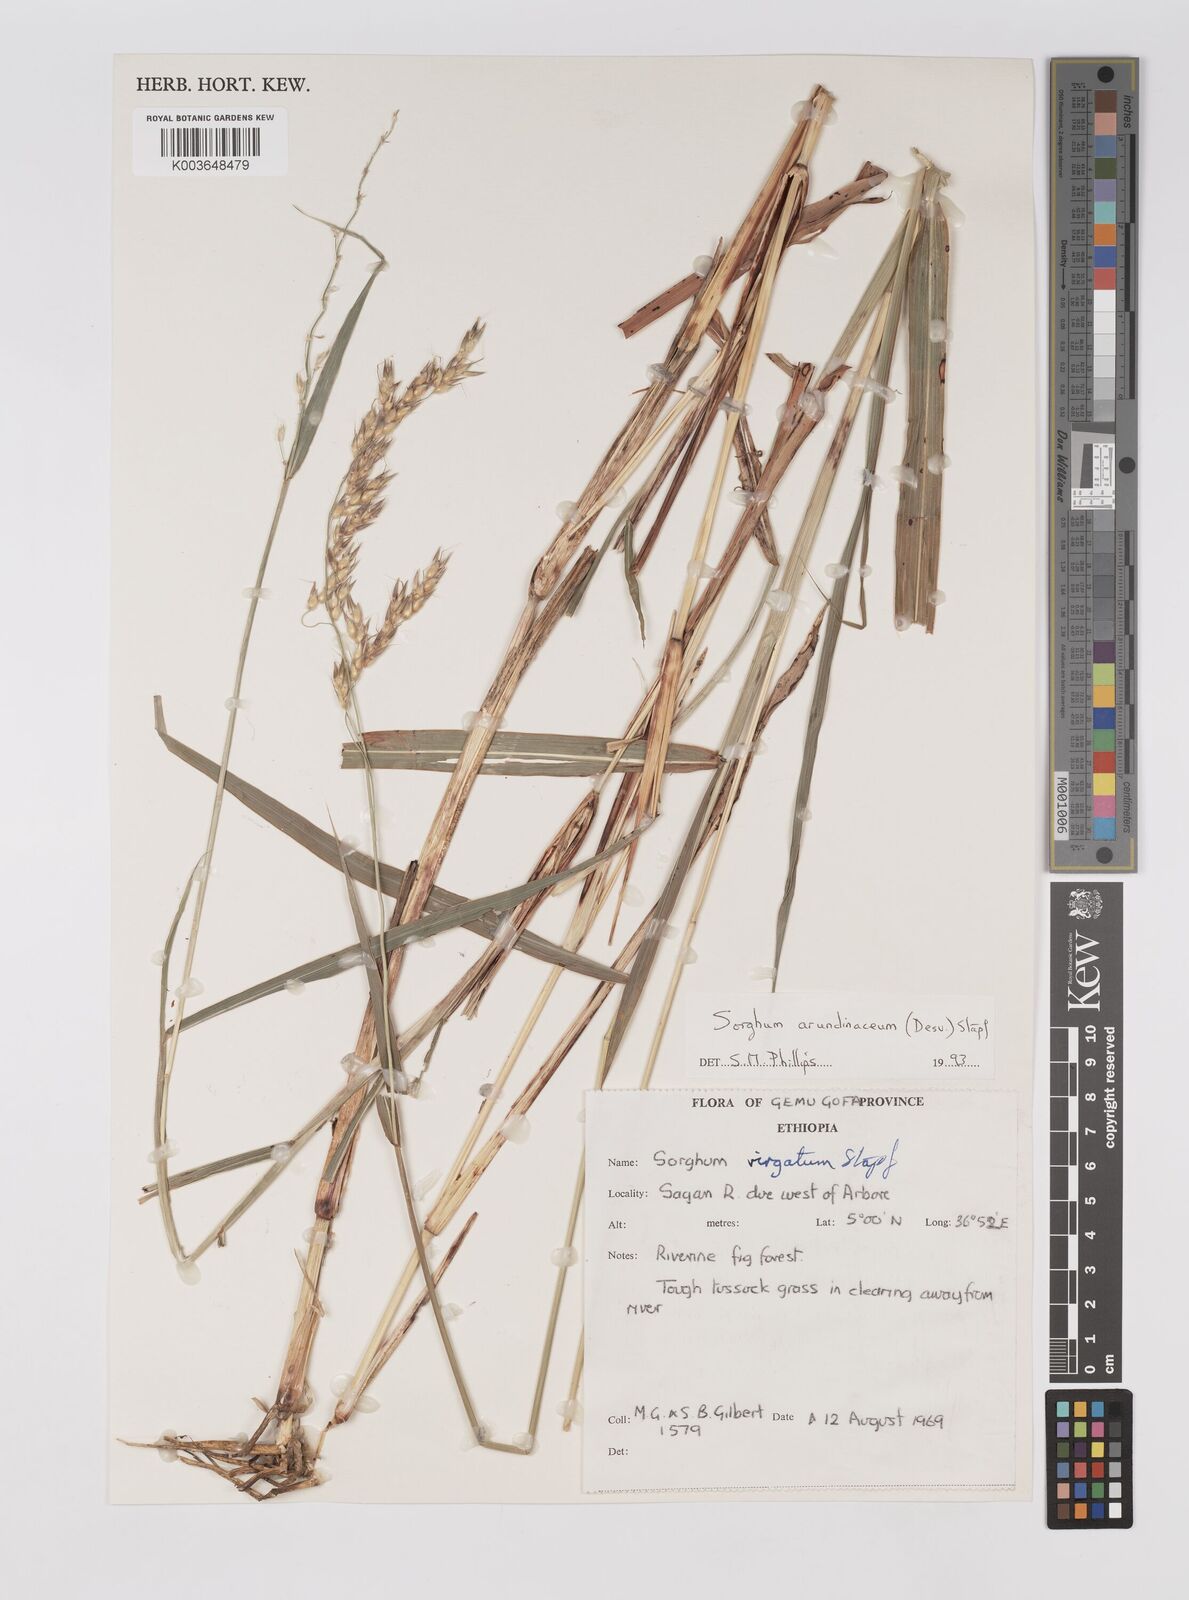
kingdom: Plantae
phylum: Tracheophyta
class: Liliopsida
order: Poales
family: Poaceae
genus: Sorghum
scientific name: Sorghum arundinaceum
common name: Sorghum
